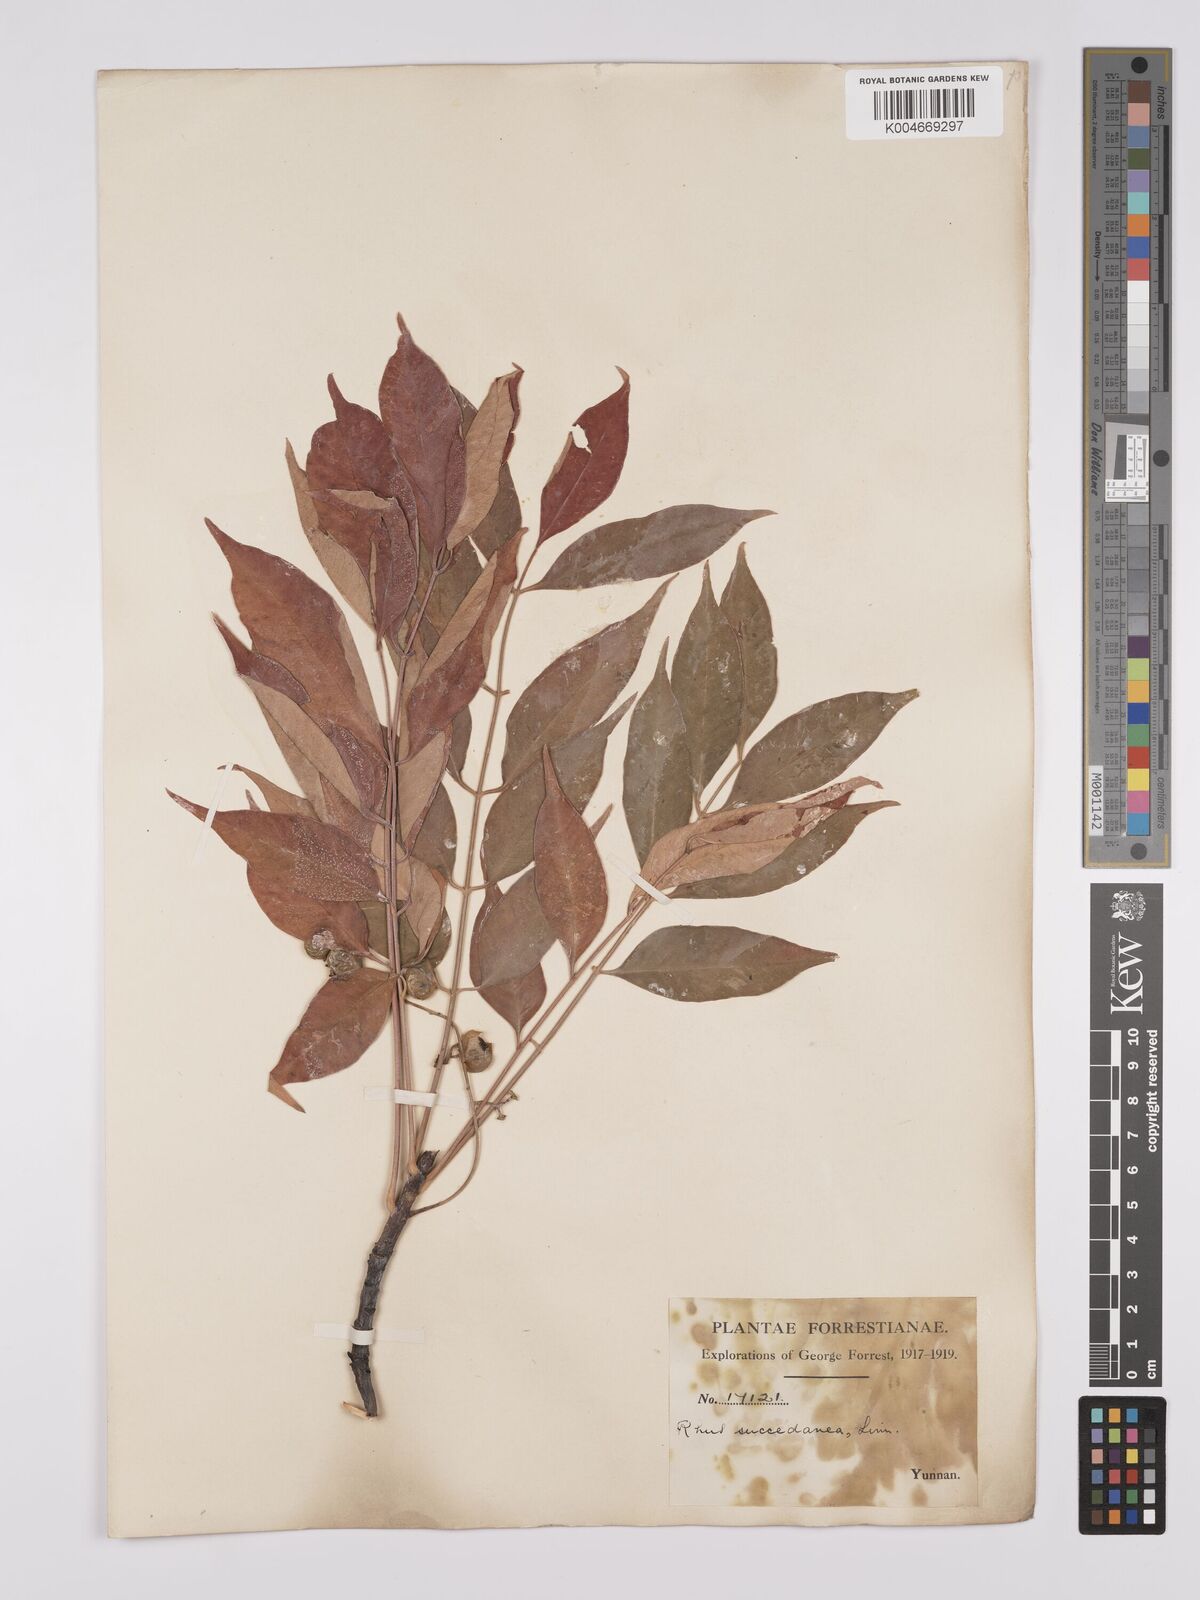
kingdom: Plantae
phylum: Tracheophyta
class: Magnoliopsida
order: Sapindales
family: Anacardiaceae
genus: Toxicodendron
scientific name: Toxicodendron succedaneum
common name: Wax tree
